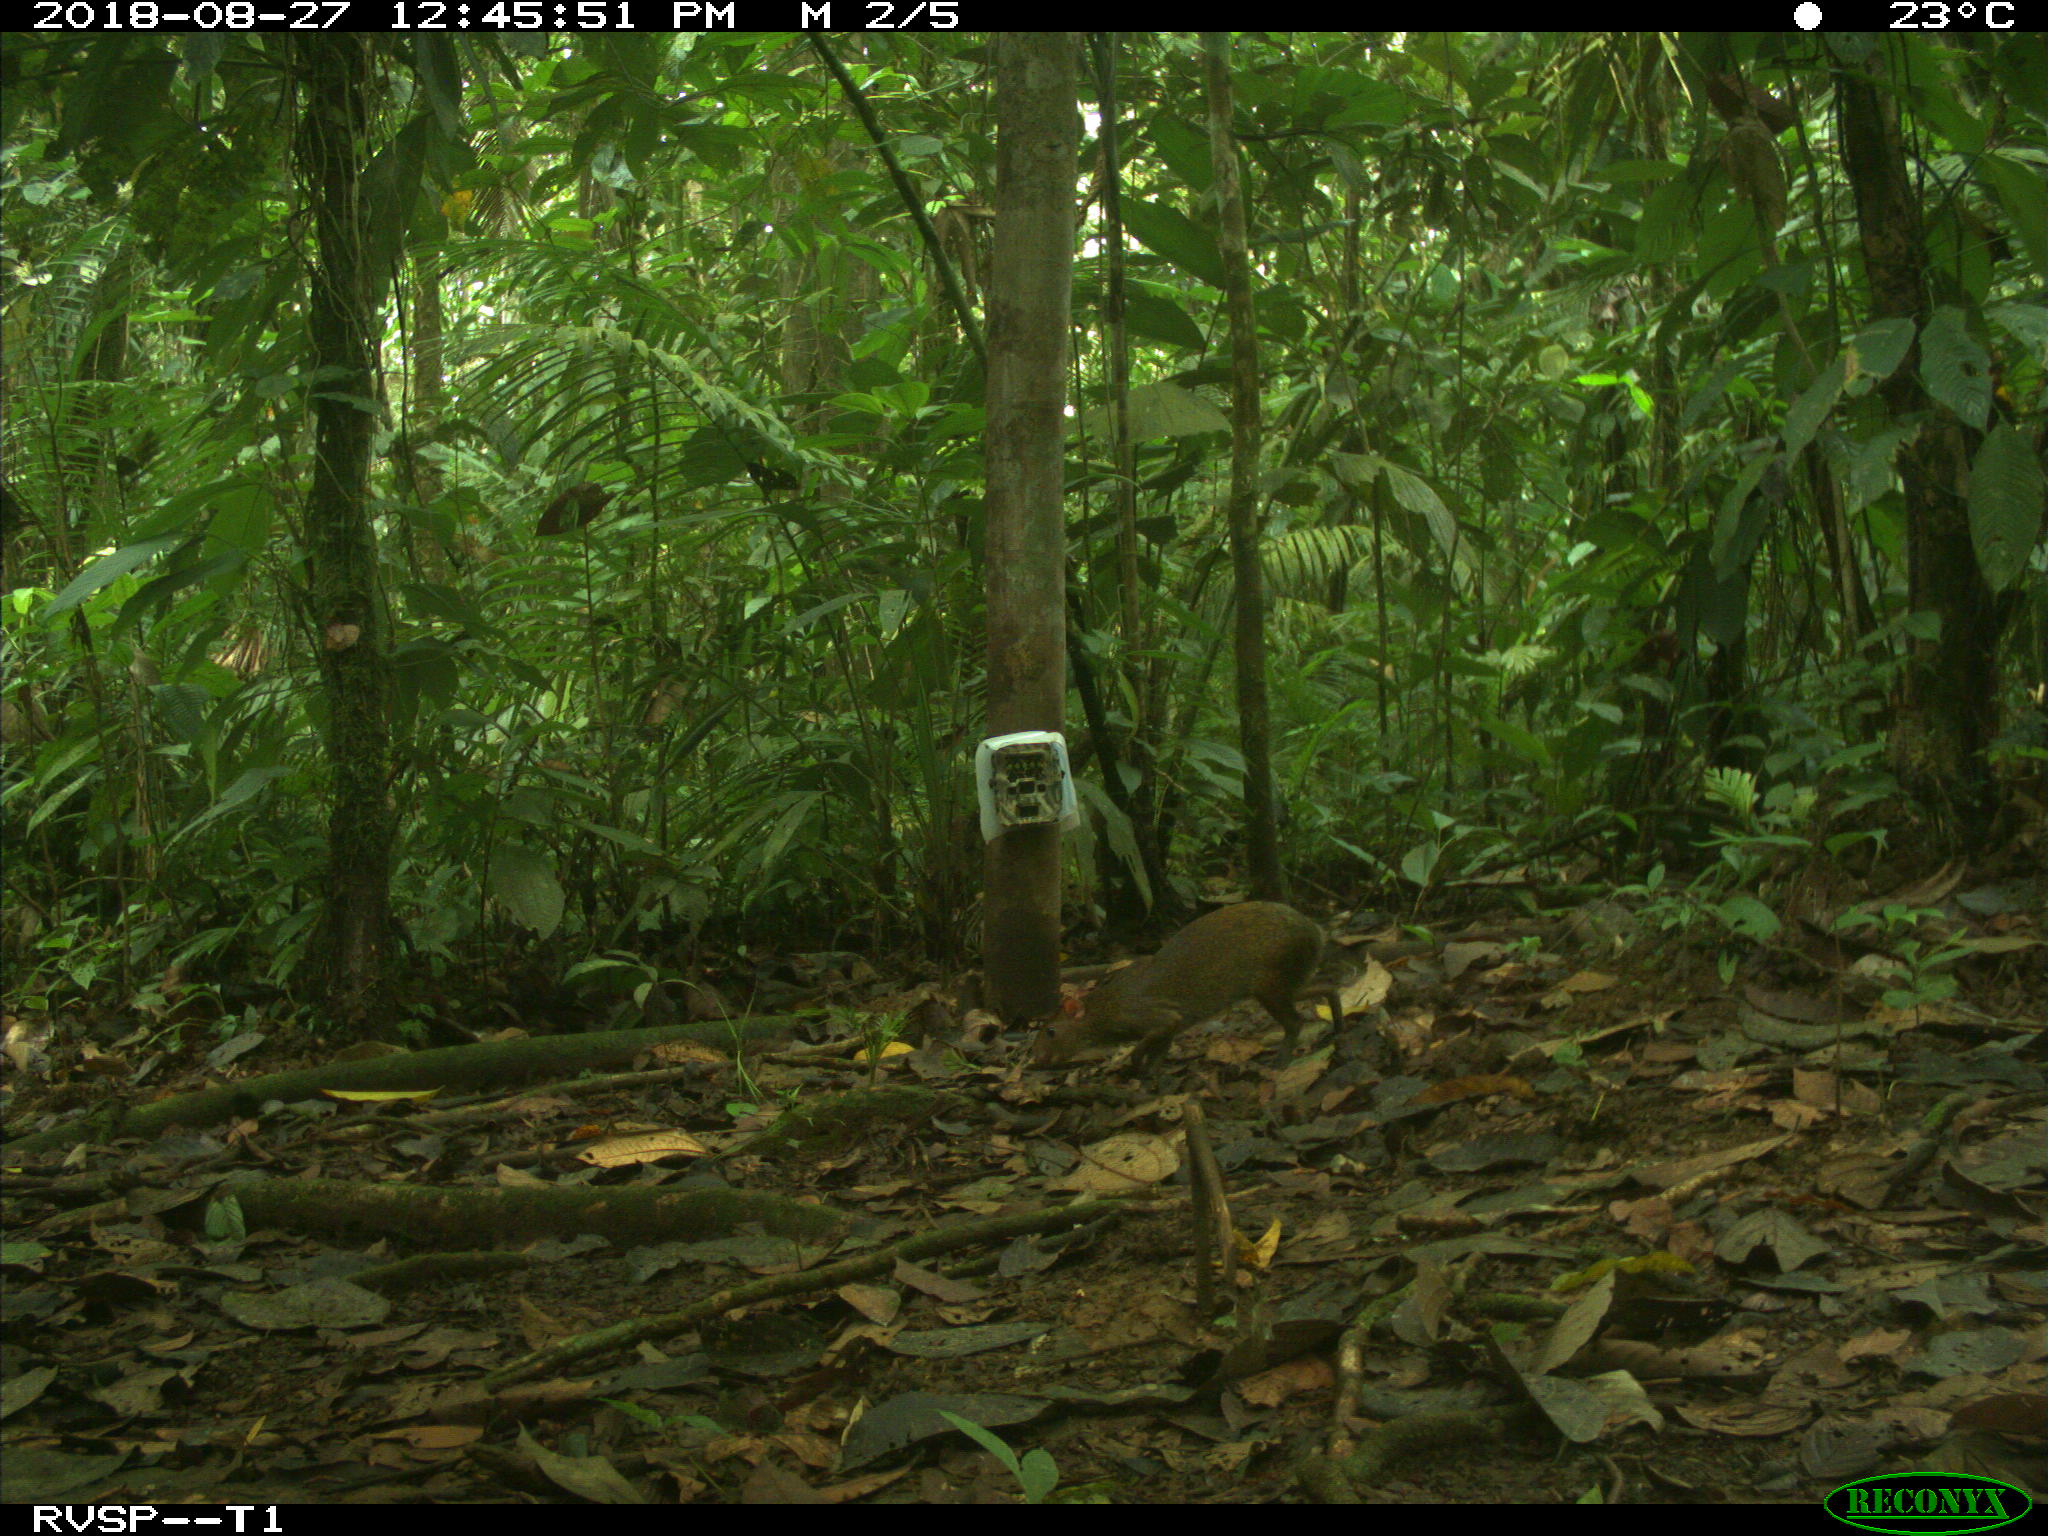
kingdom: Animalia
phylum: Chordata
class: Mammalia
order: Rodentia
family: Dasyproctidae
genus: Dasyprocta
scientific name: Dasyprocta punctata
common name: Central american agouti
